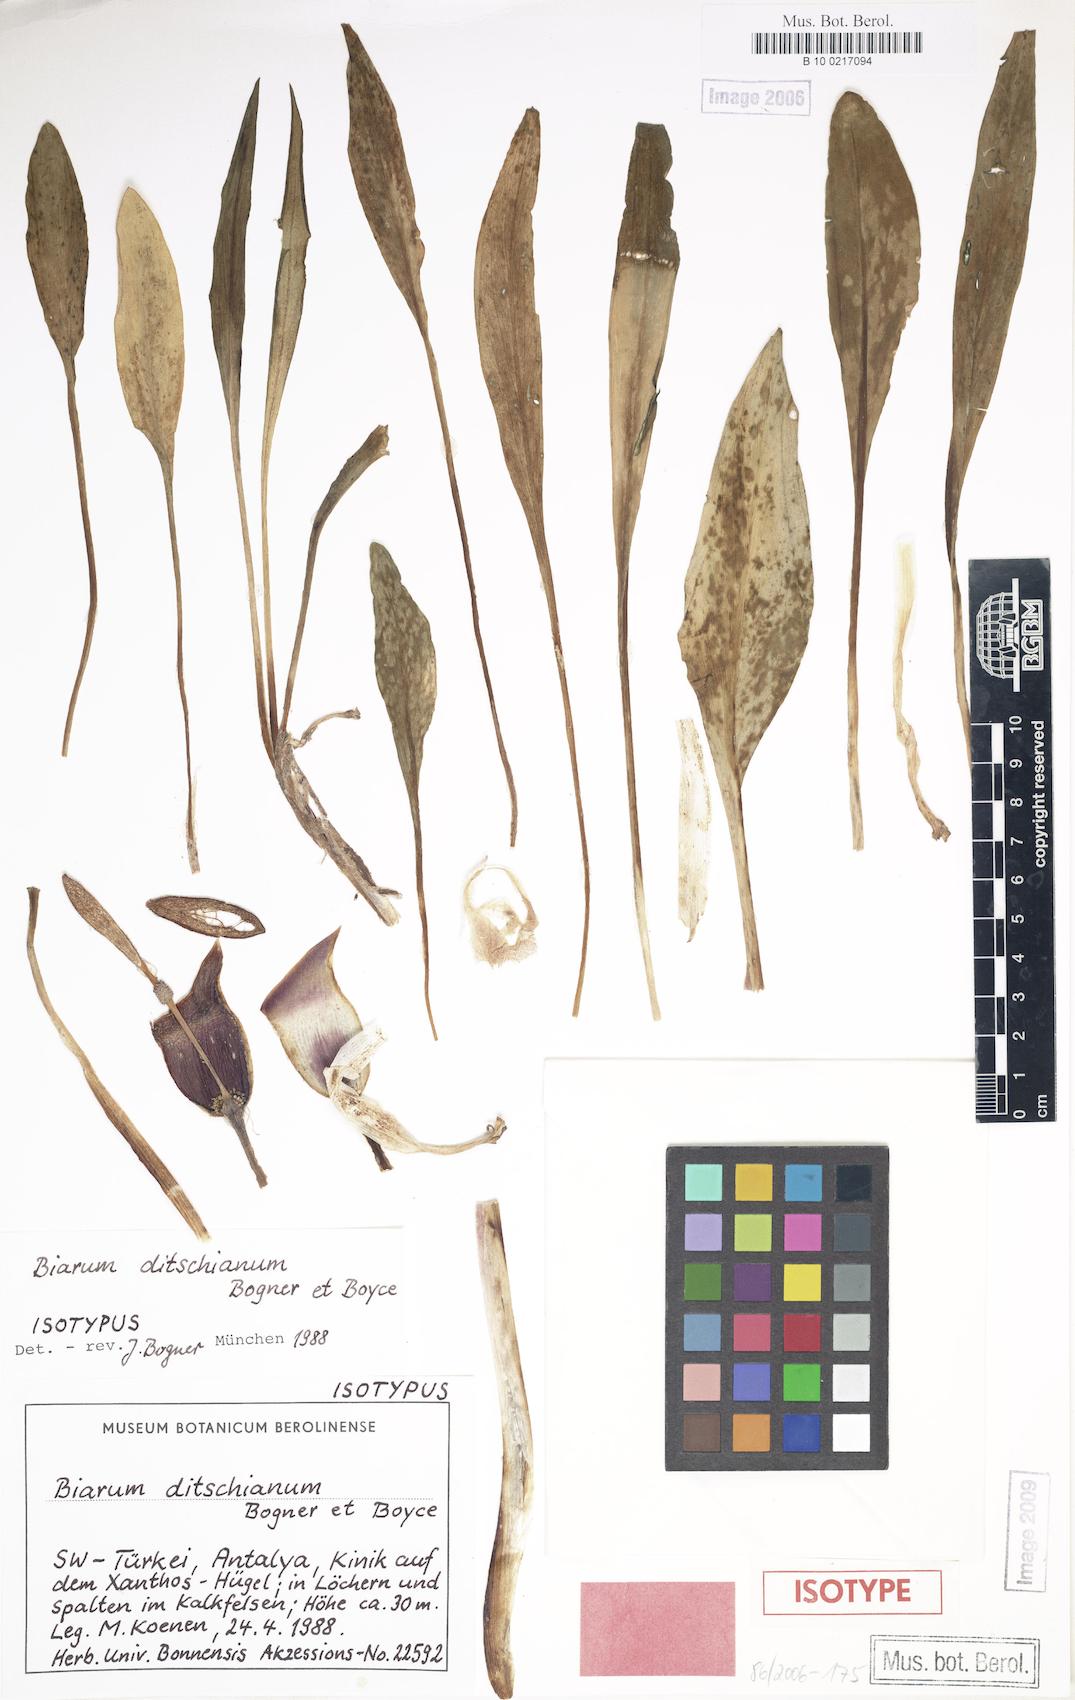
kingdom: Plantae
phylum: Tracheophyta
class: Liliopsida
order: Alismatales
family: Araceae
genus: Biarum
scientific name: Biarum ditschianum
